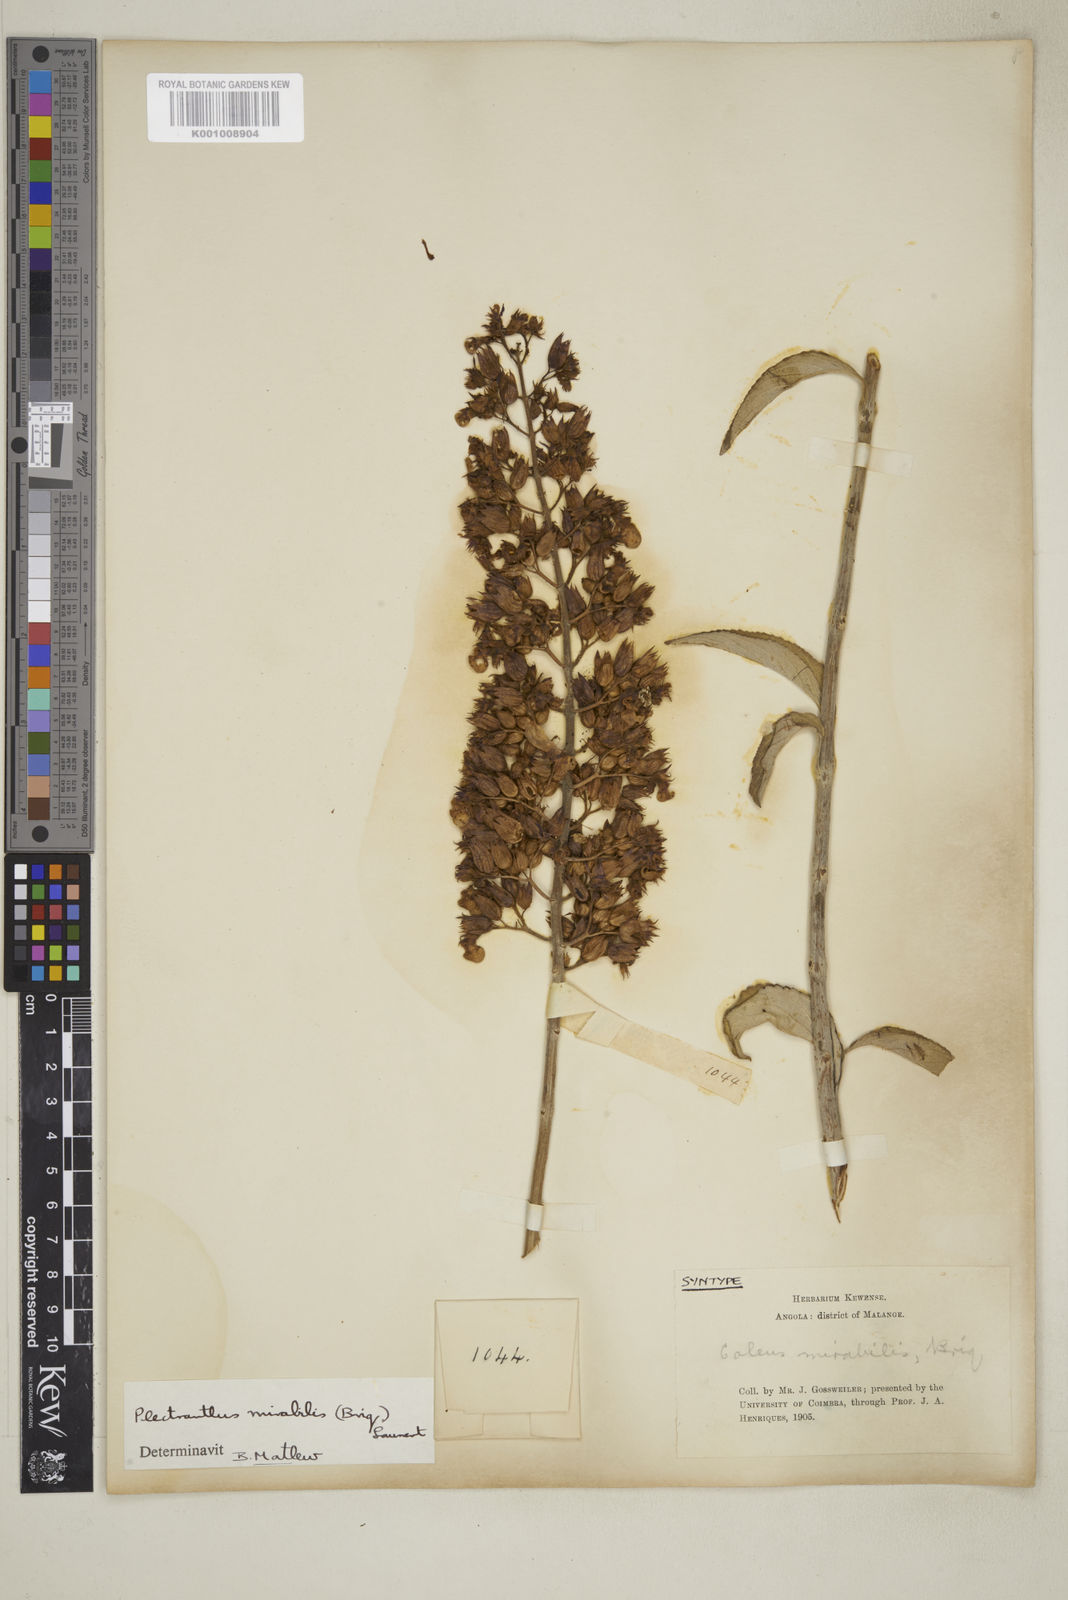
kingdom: Plantae
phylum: Tracheophyta
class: Magnoliopsida
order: Lamiales
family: Lamiaceae
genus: Coleus
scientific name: Coleus mirabilis
